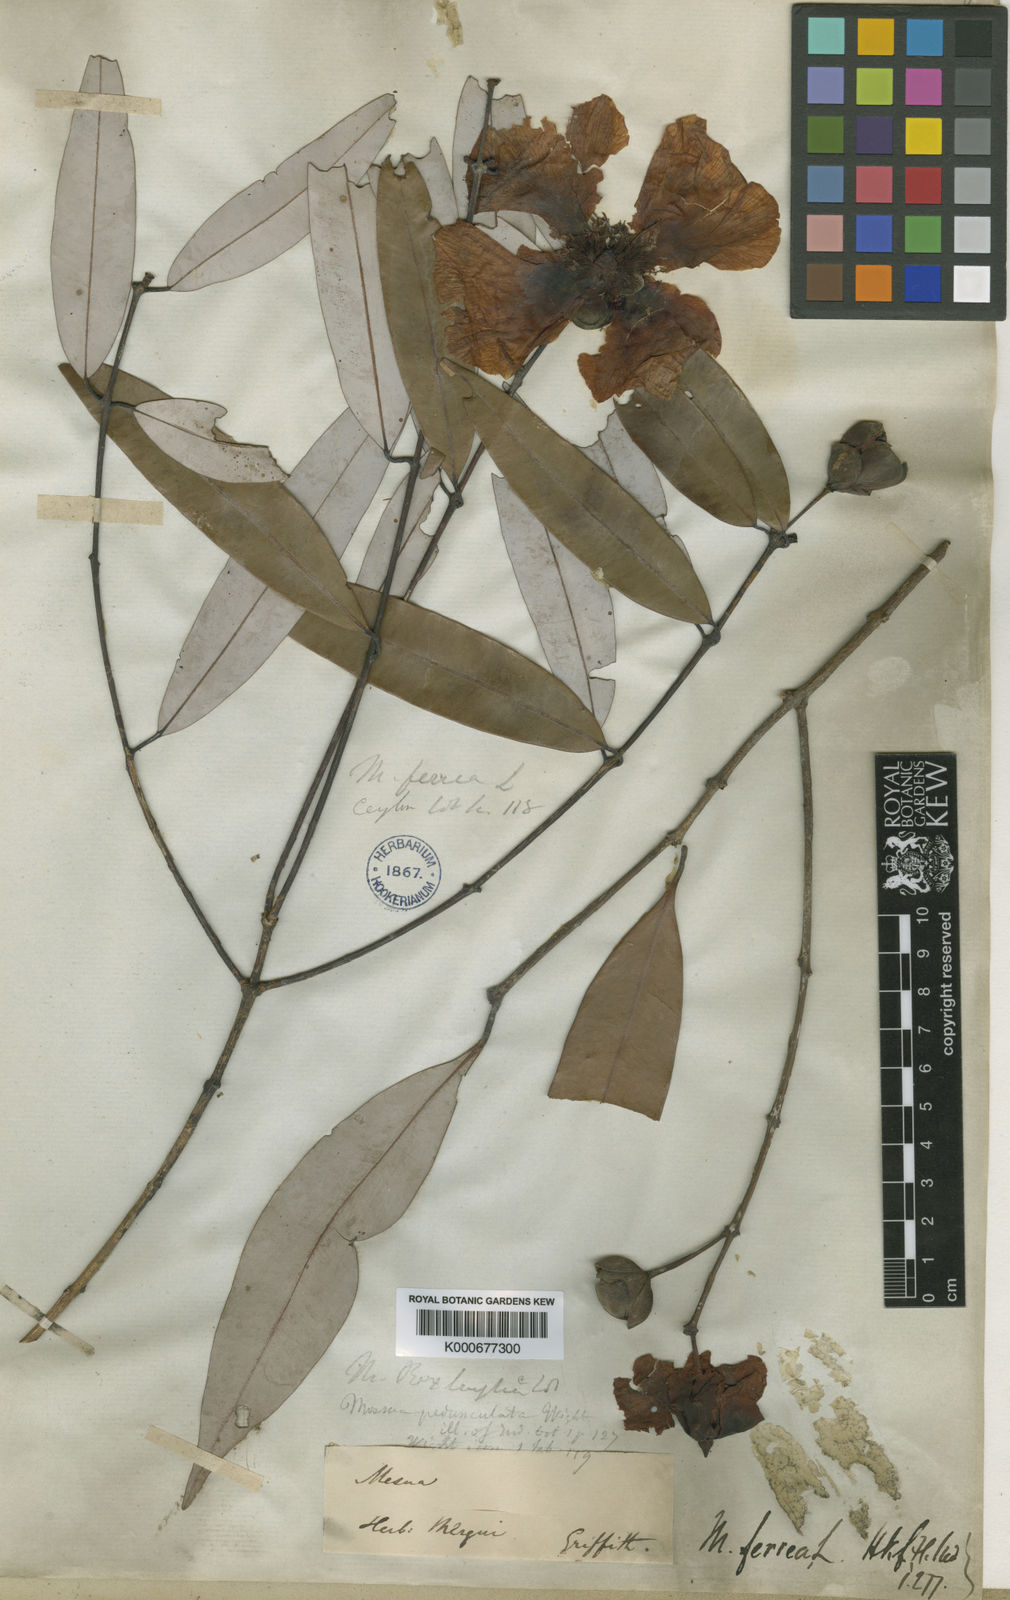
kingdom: Plantae
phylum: Tracheophyta
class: Magnoliopsida
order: Malpighiales
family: Calophyllaceae
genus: Mesua
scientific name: Mesua ferrea
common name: Mesua
